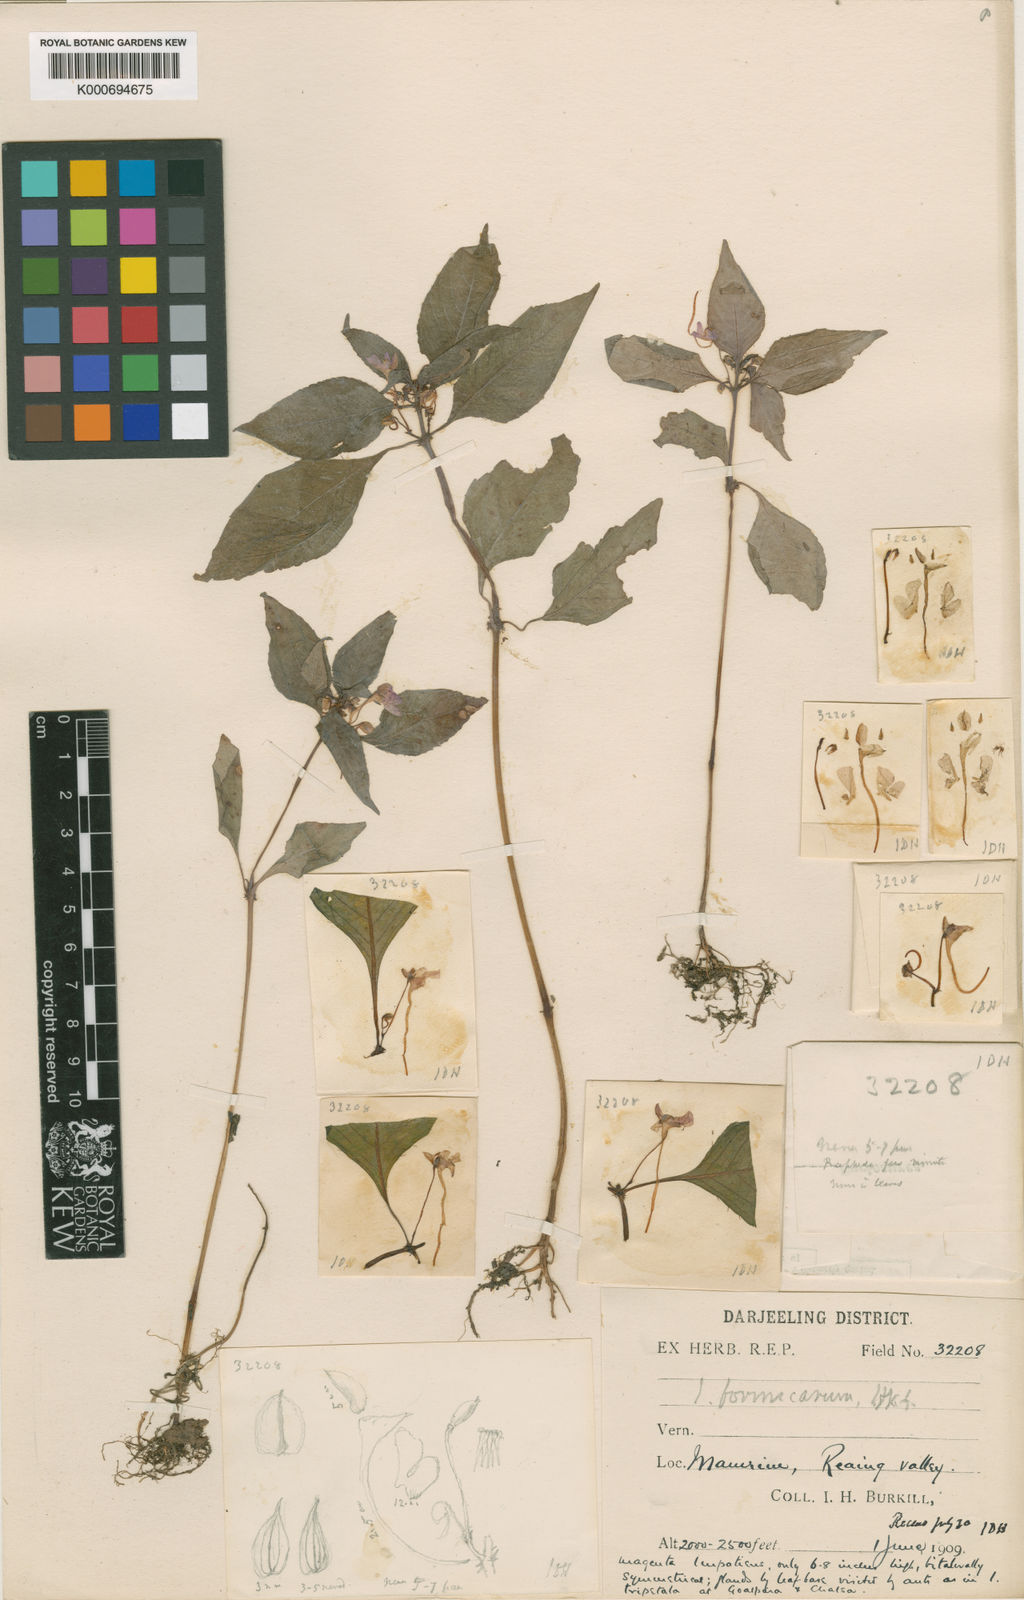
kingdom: Plantae
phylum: Tracheophyta
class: Magnoliopsida
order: Ericales
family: Balsaminaceae
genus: Impatiens
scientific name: Impatiens
